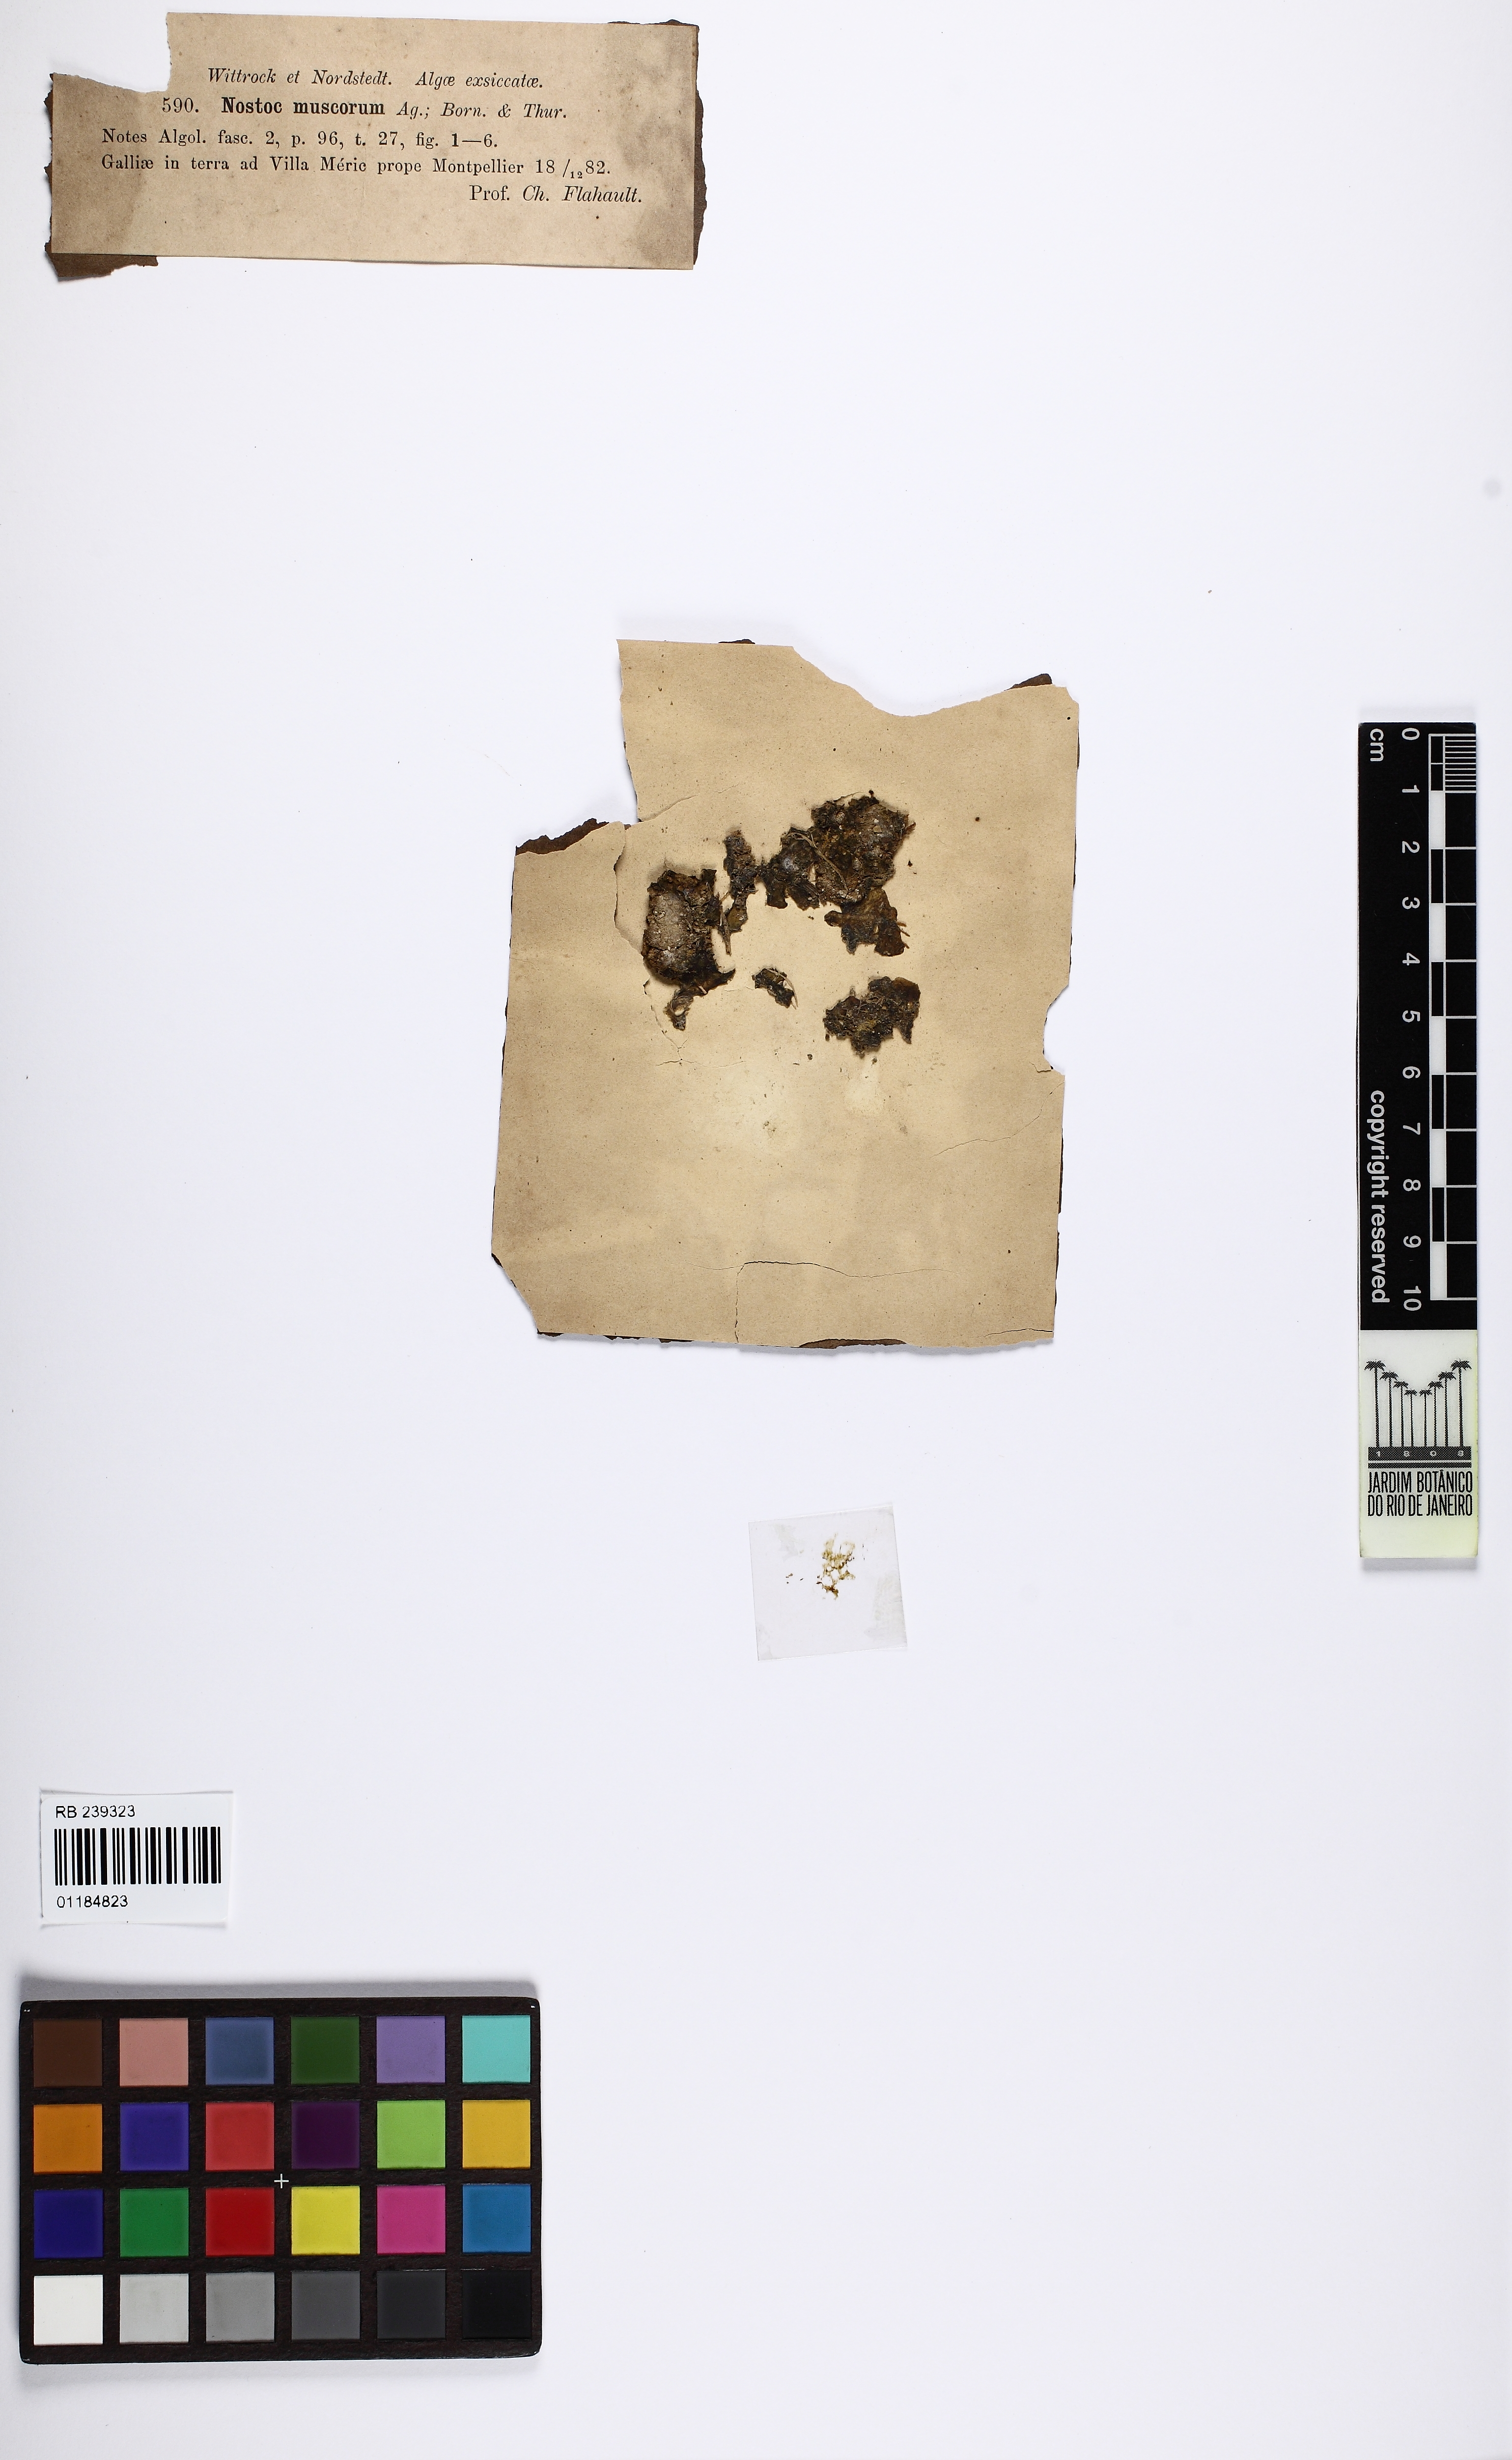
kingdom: Bacteria
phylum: Cyanobacteria
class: Cyanobacteriia
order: Cyanobacteriales
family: Nostocaceae
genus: Nostoc
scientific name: Nostoc commune
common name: Star jelly
